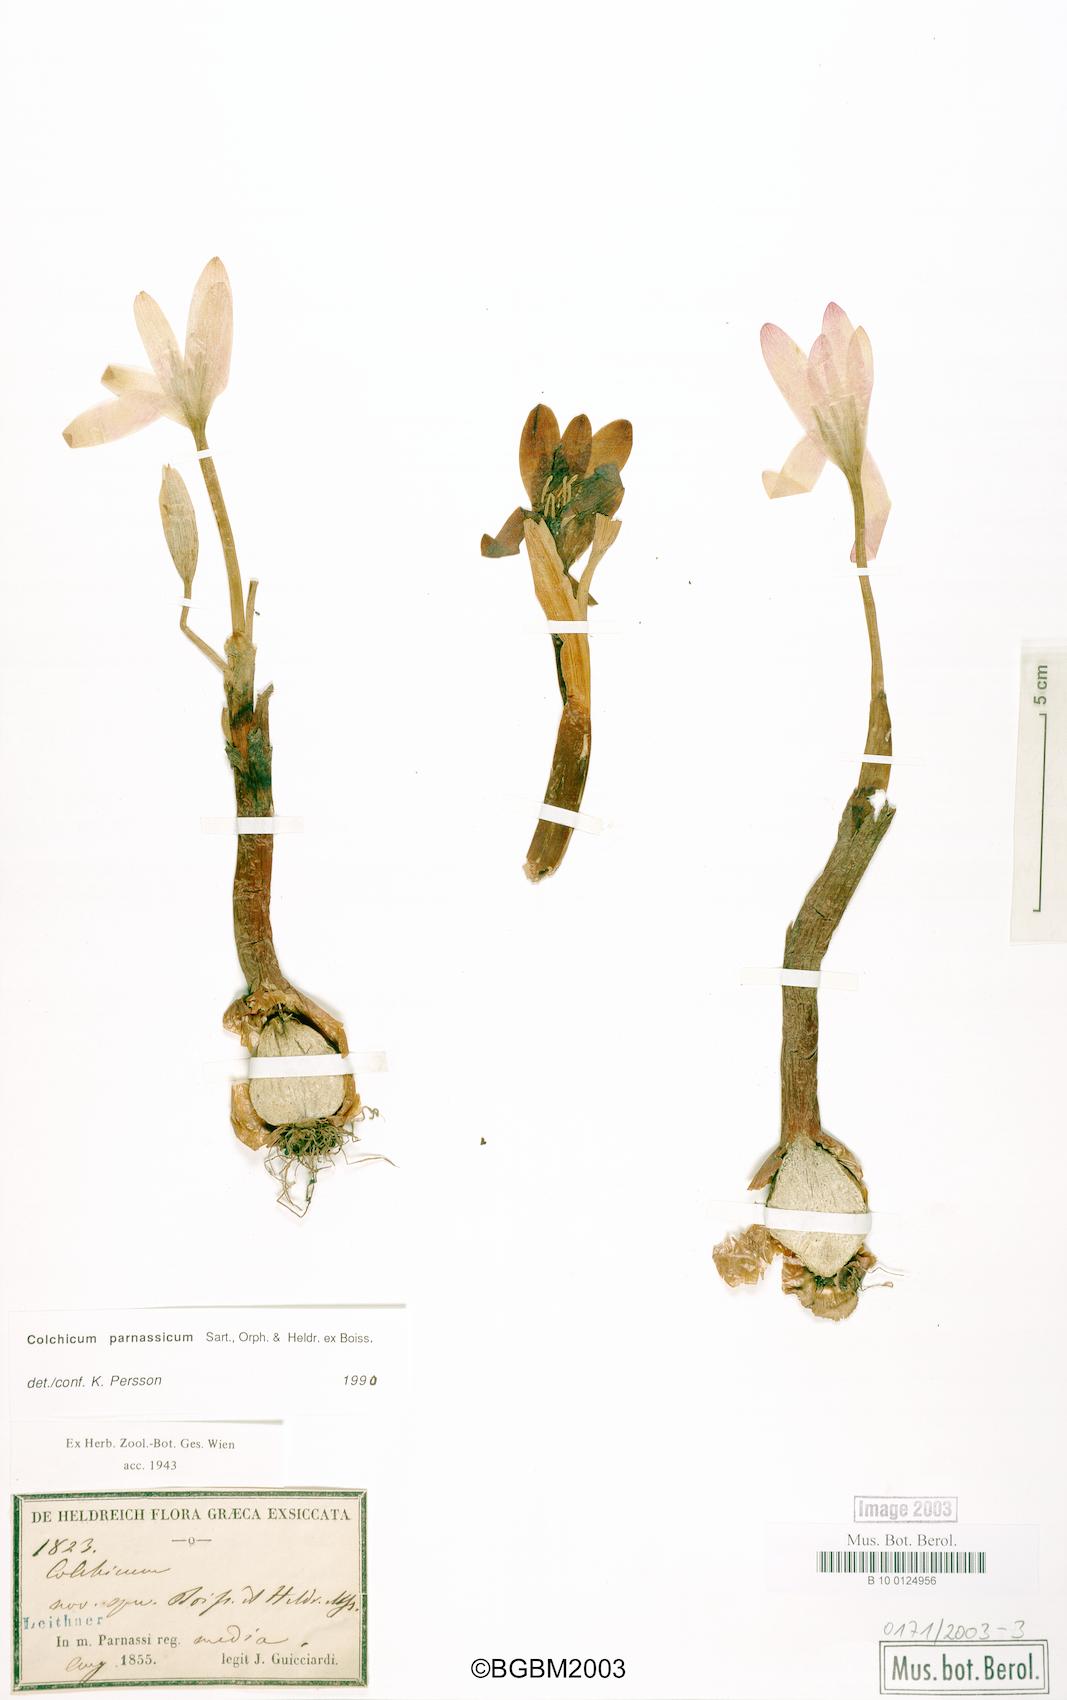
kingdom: Plantae
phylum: Tracheophyta
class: Liliopsida
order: Liliales
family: Colchicaceae
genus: Colchicum
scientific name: Colchicum parnassicum
